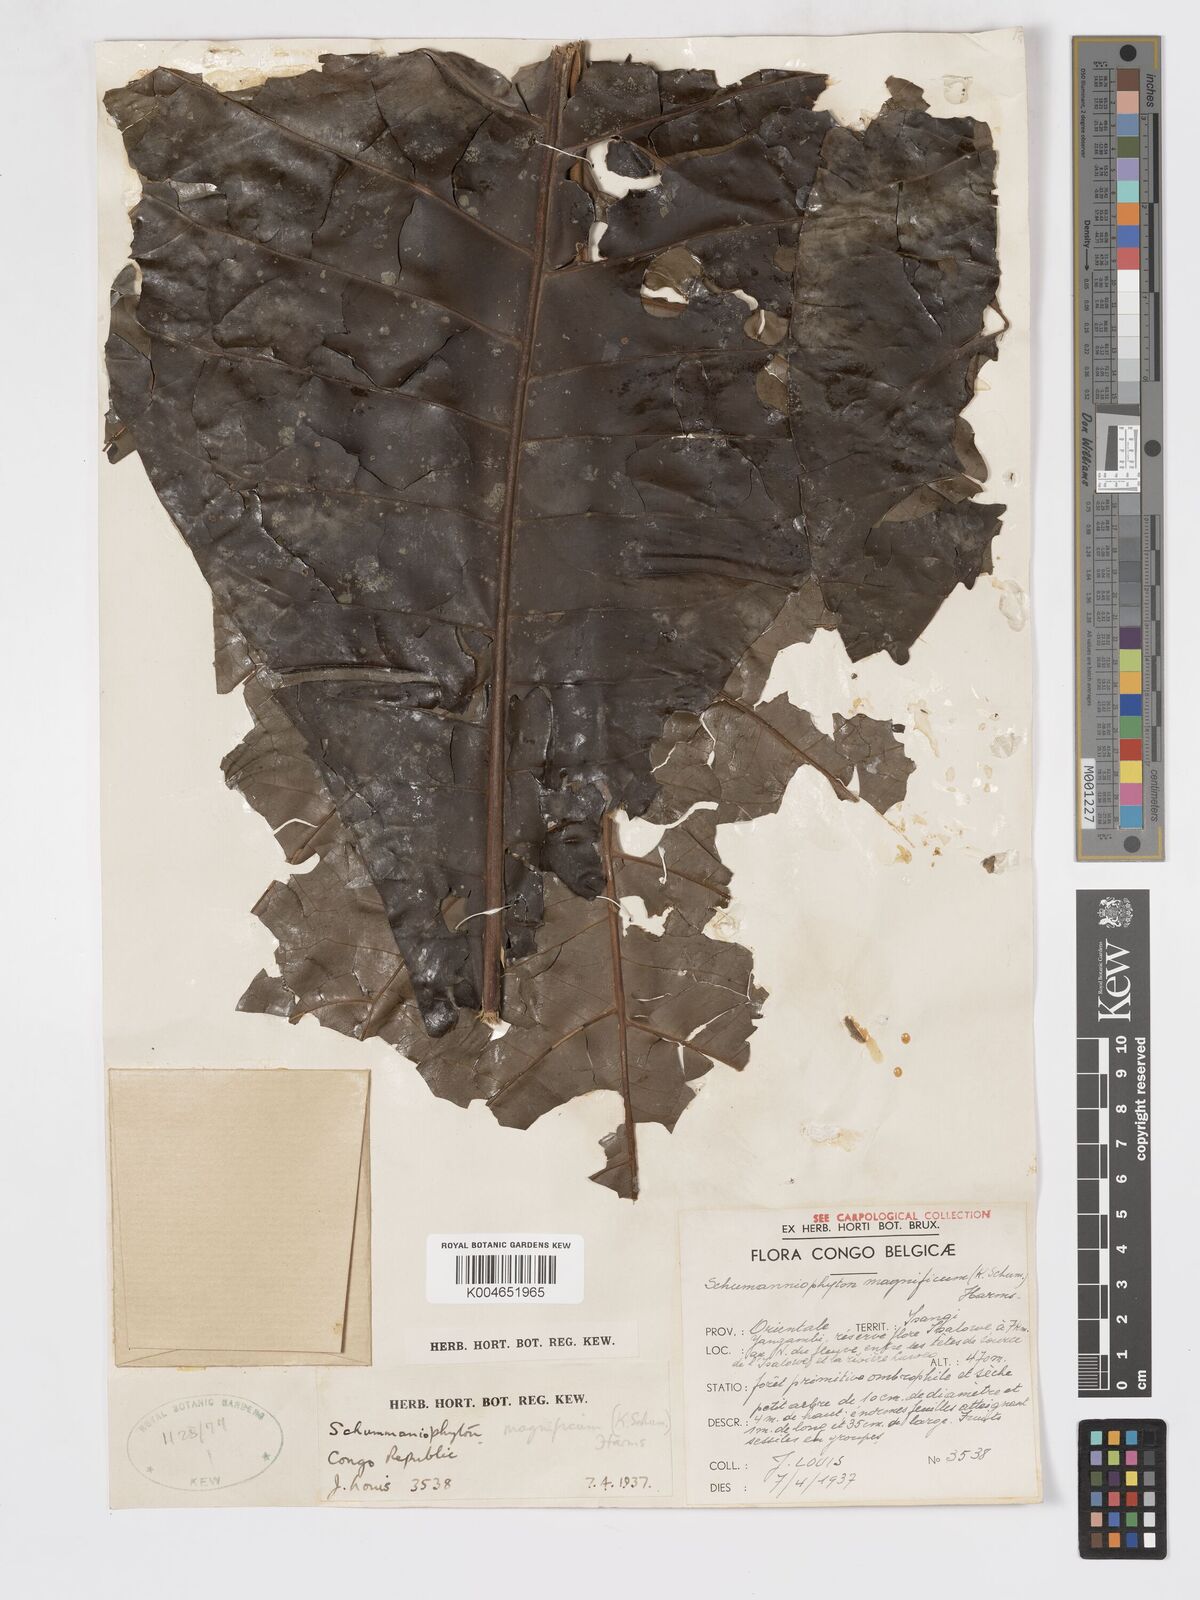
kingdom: Plantae
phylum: Tracheophyta
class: Magnoliopsida
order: Gentianales
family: Rubiaceae
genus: Schumanniophyton
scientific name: Schumanniophyton magnificum
